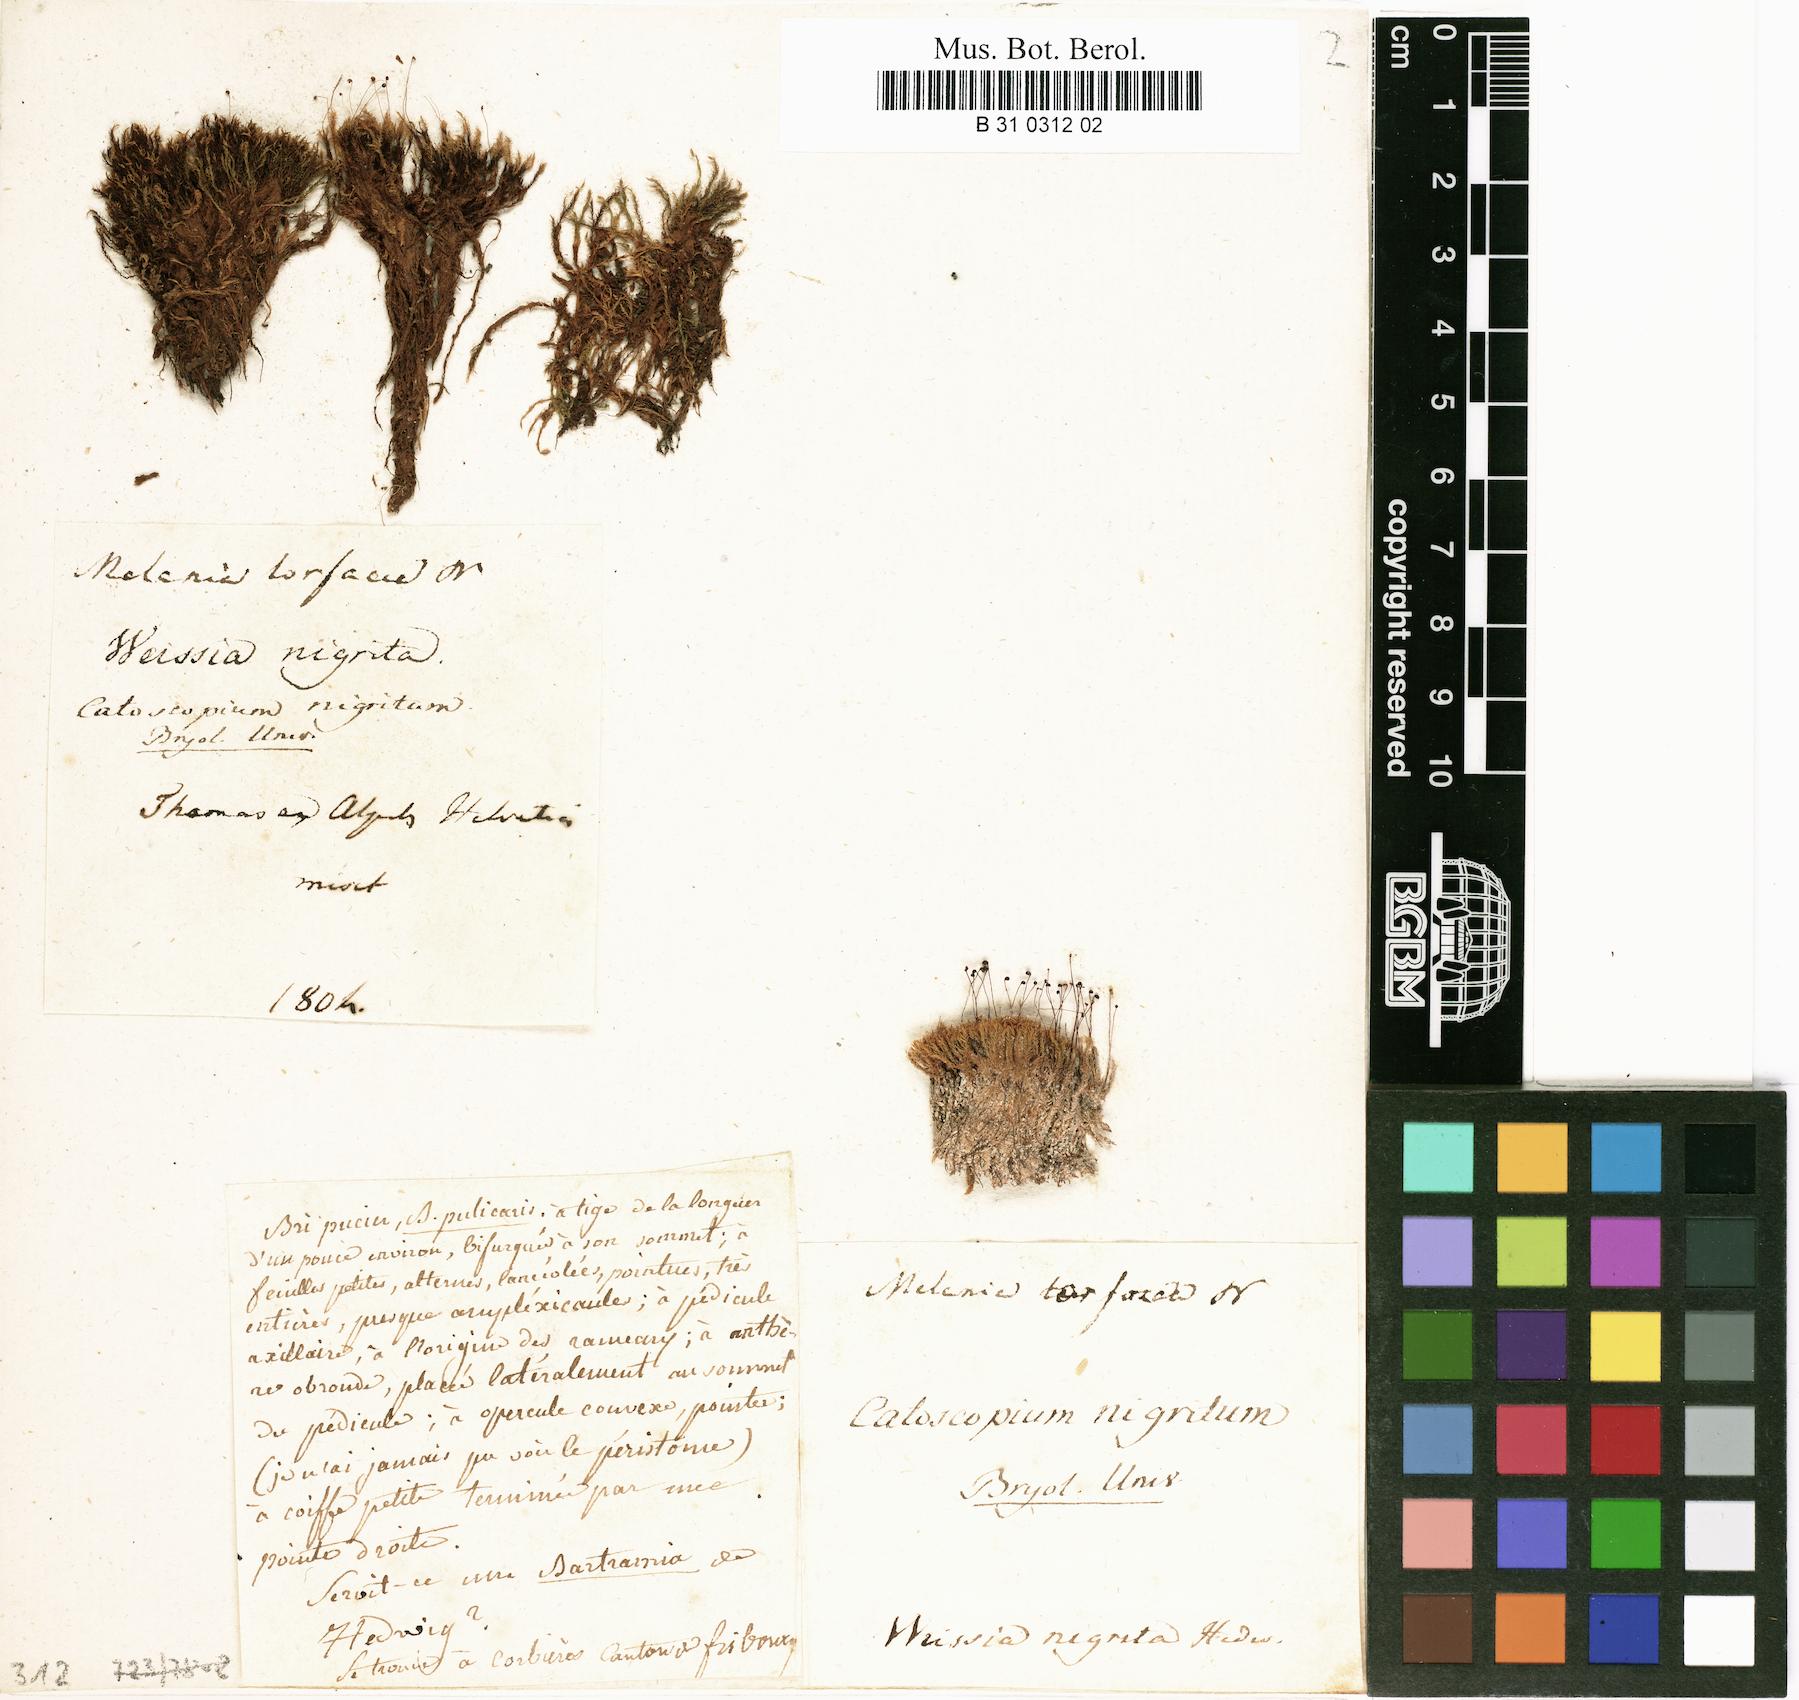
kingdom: Plantae
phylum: Bryophyta
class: Bryopsida
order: Catoscopiales
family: Catoscopiaceae
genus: Catoscopium
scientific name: Catoscopium nigritum
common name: Black golf club moss
